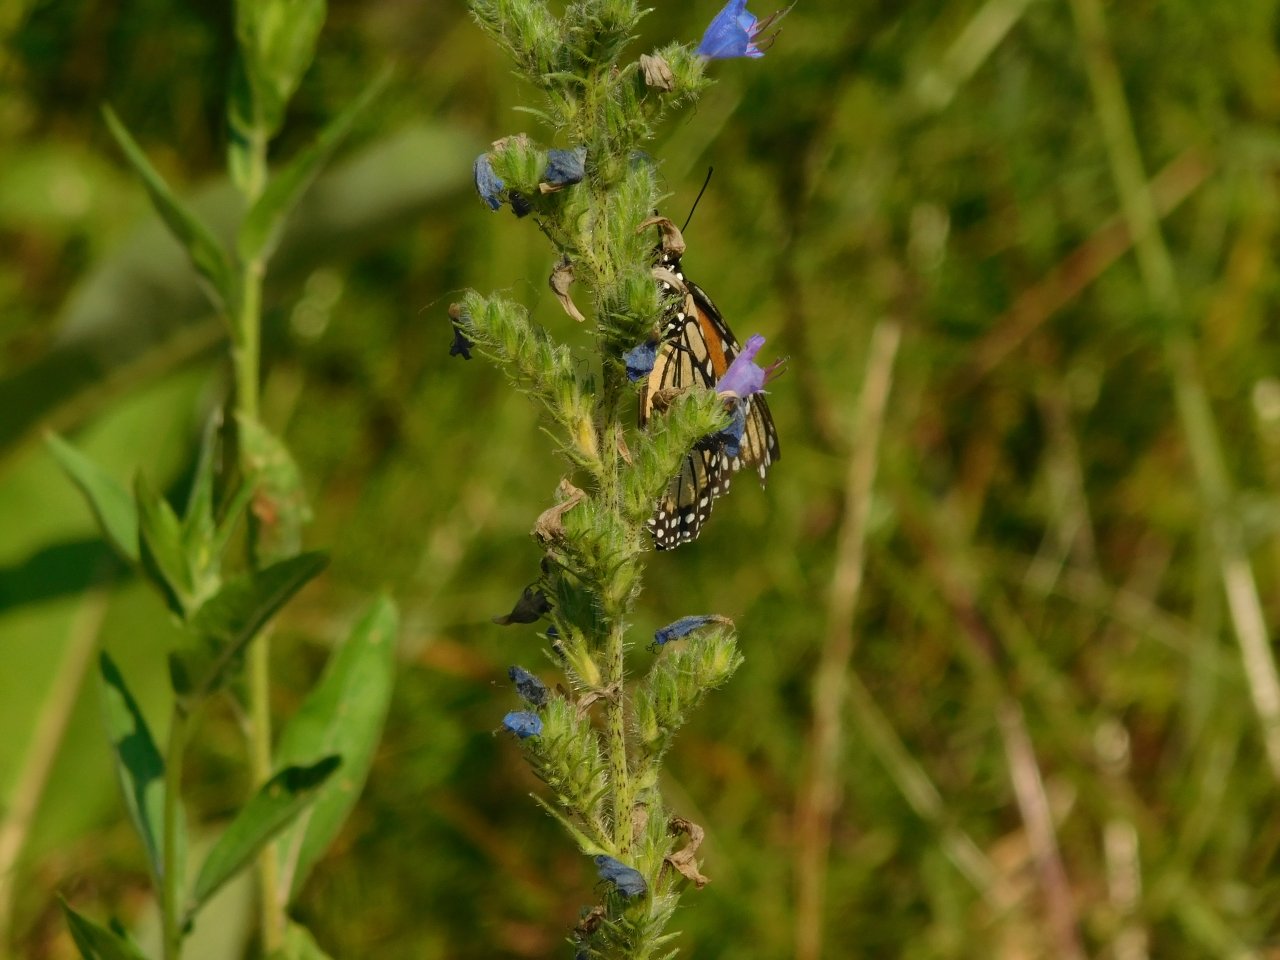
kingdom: Animalia
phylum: Arthropoda
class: Insecta
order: Lepidoptera
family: Nymphalidae
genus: Danaus
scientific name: Danaus plexippus
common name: Monarch
